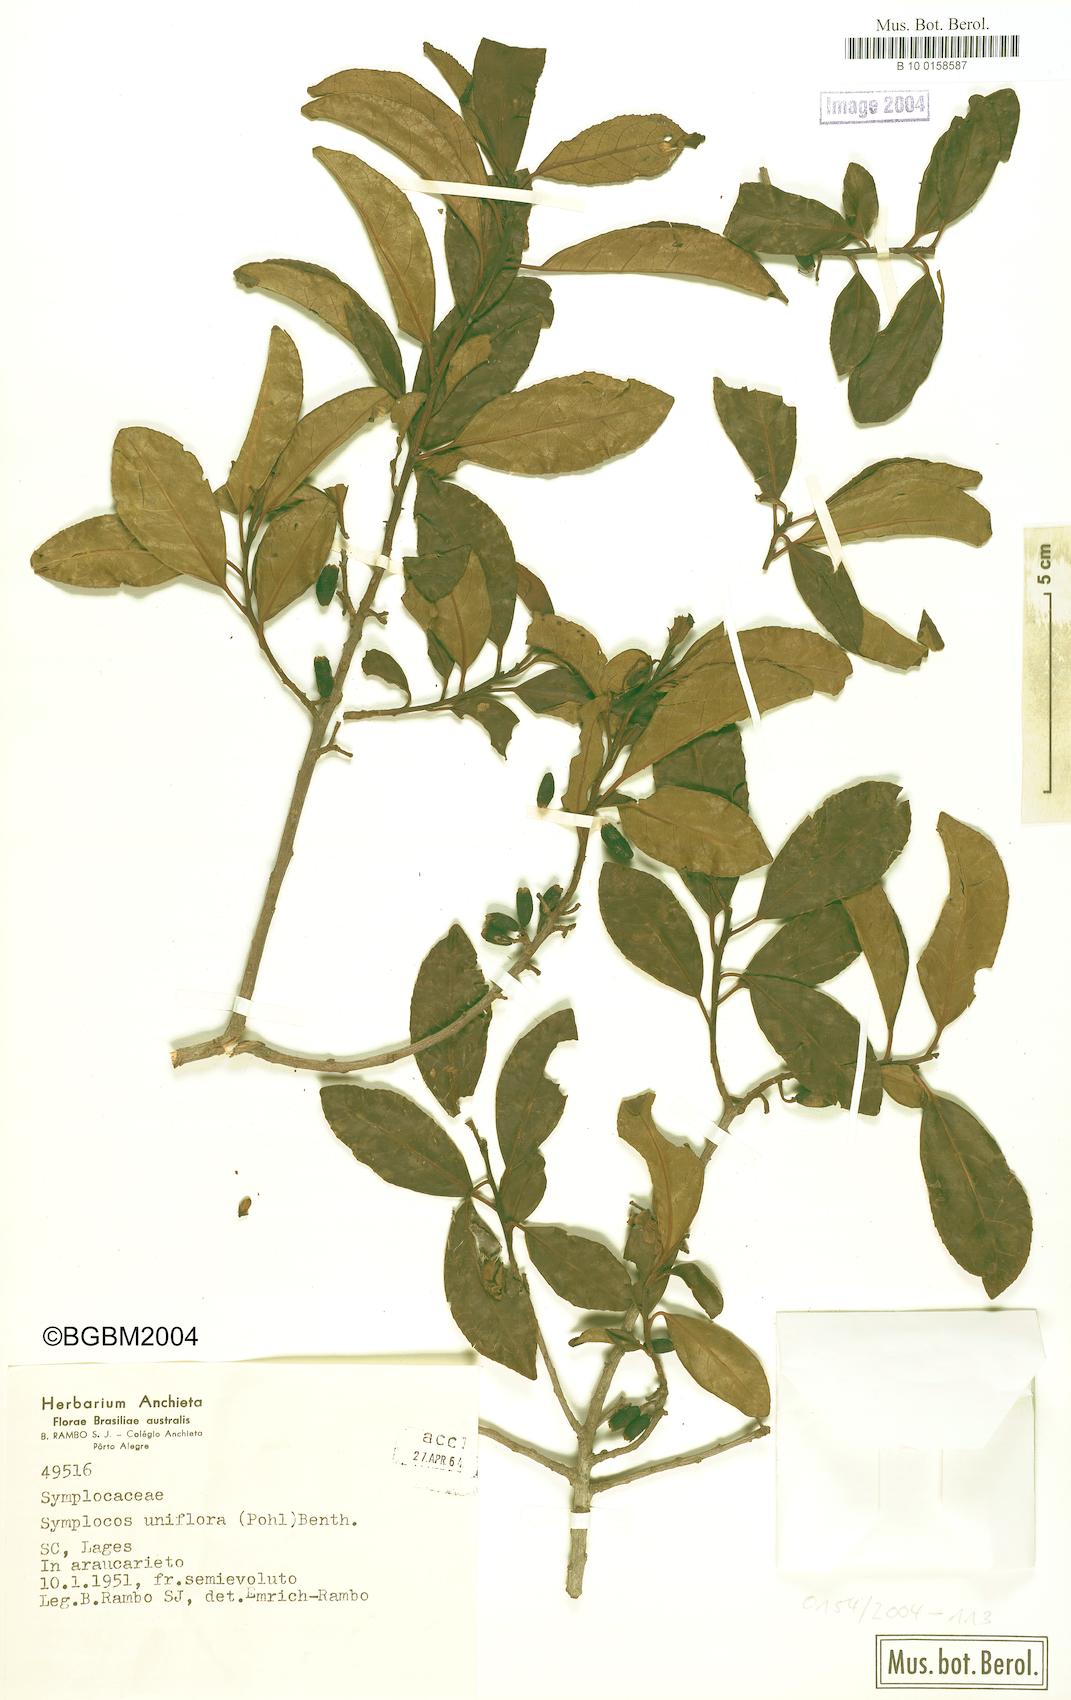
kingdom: Plantae
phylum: Tracheophyta
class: Magnoliopsida
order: Ericales
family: Symplocaceae
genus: Symplocos
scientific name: Symplocos uniflora
